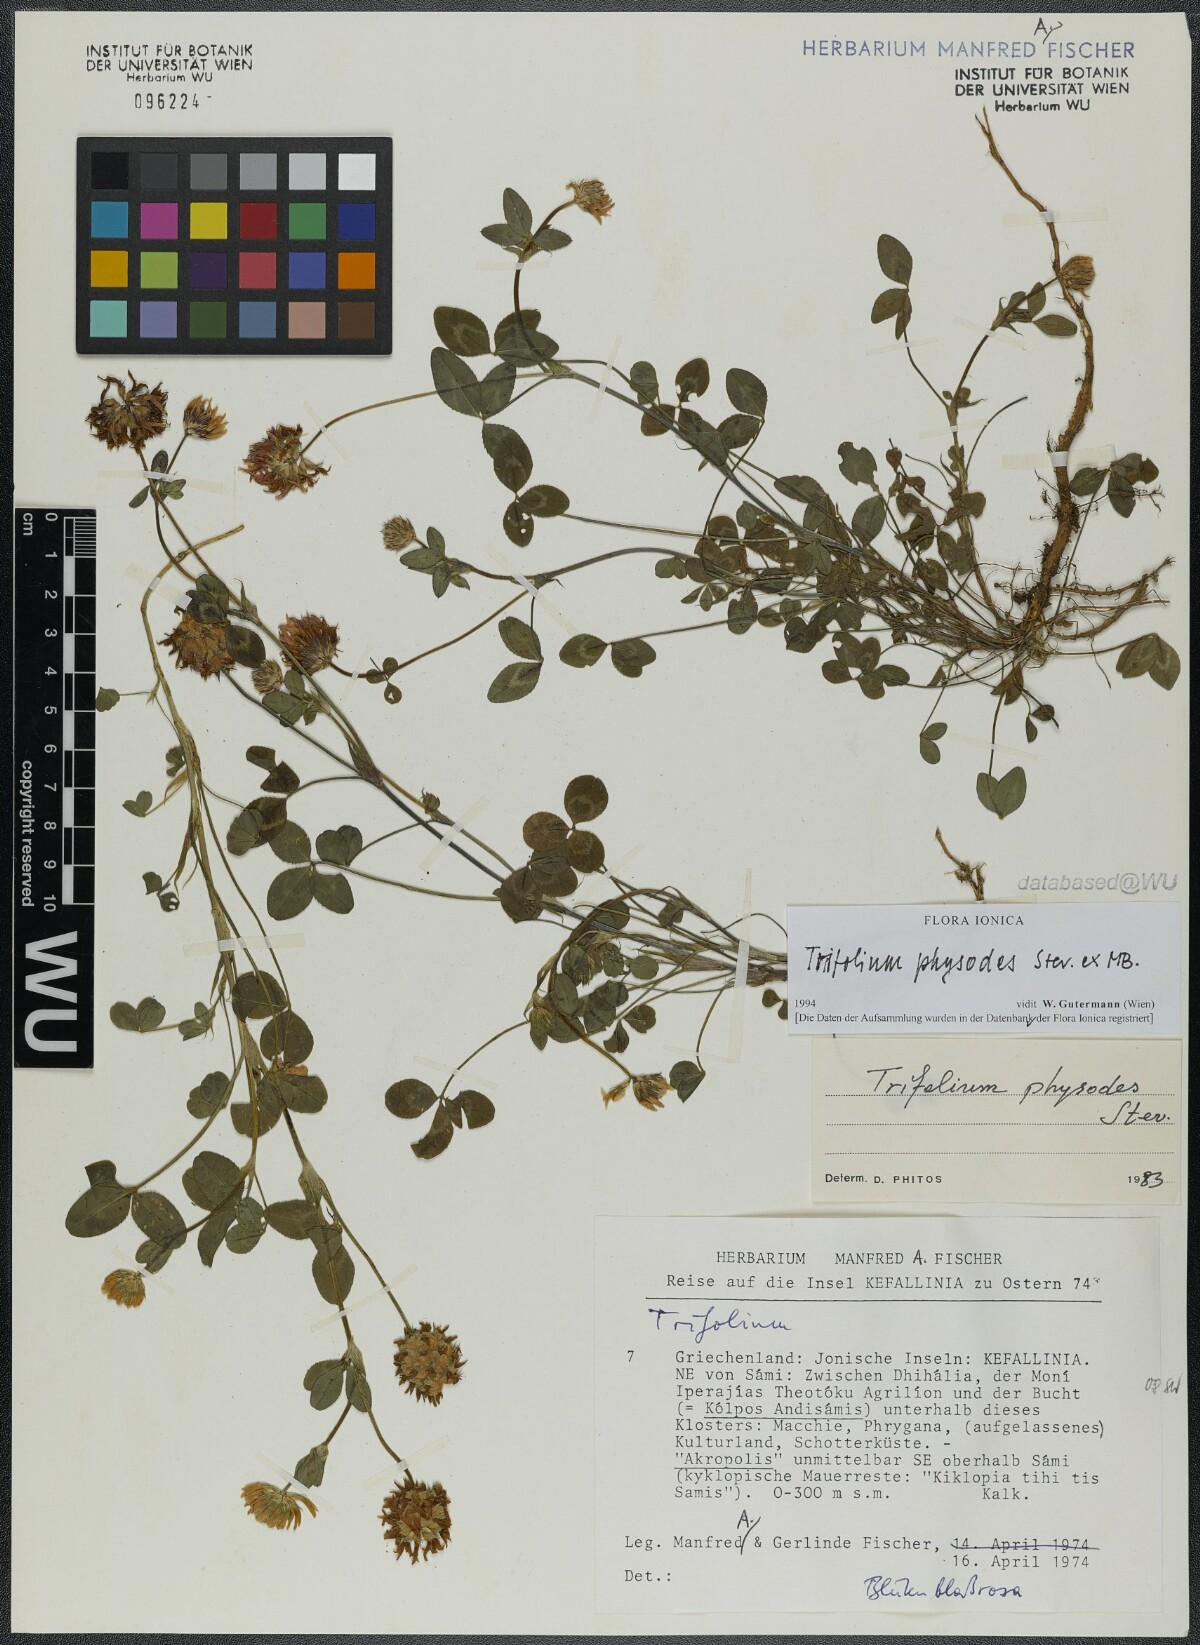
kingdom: Plantae
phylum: Tracheophyta
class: Magnoliopsida
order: Fabales
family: Fabaceae
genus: Trifolium
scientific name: Trifolium physodes
